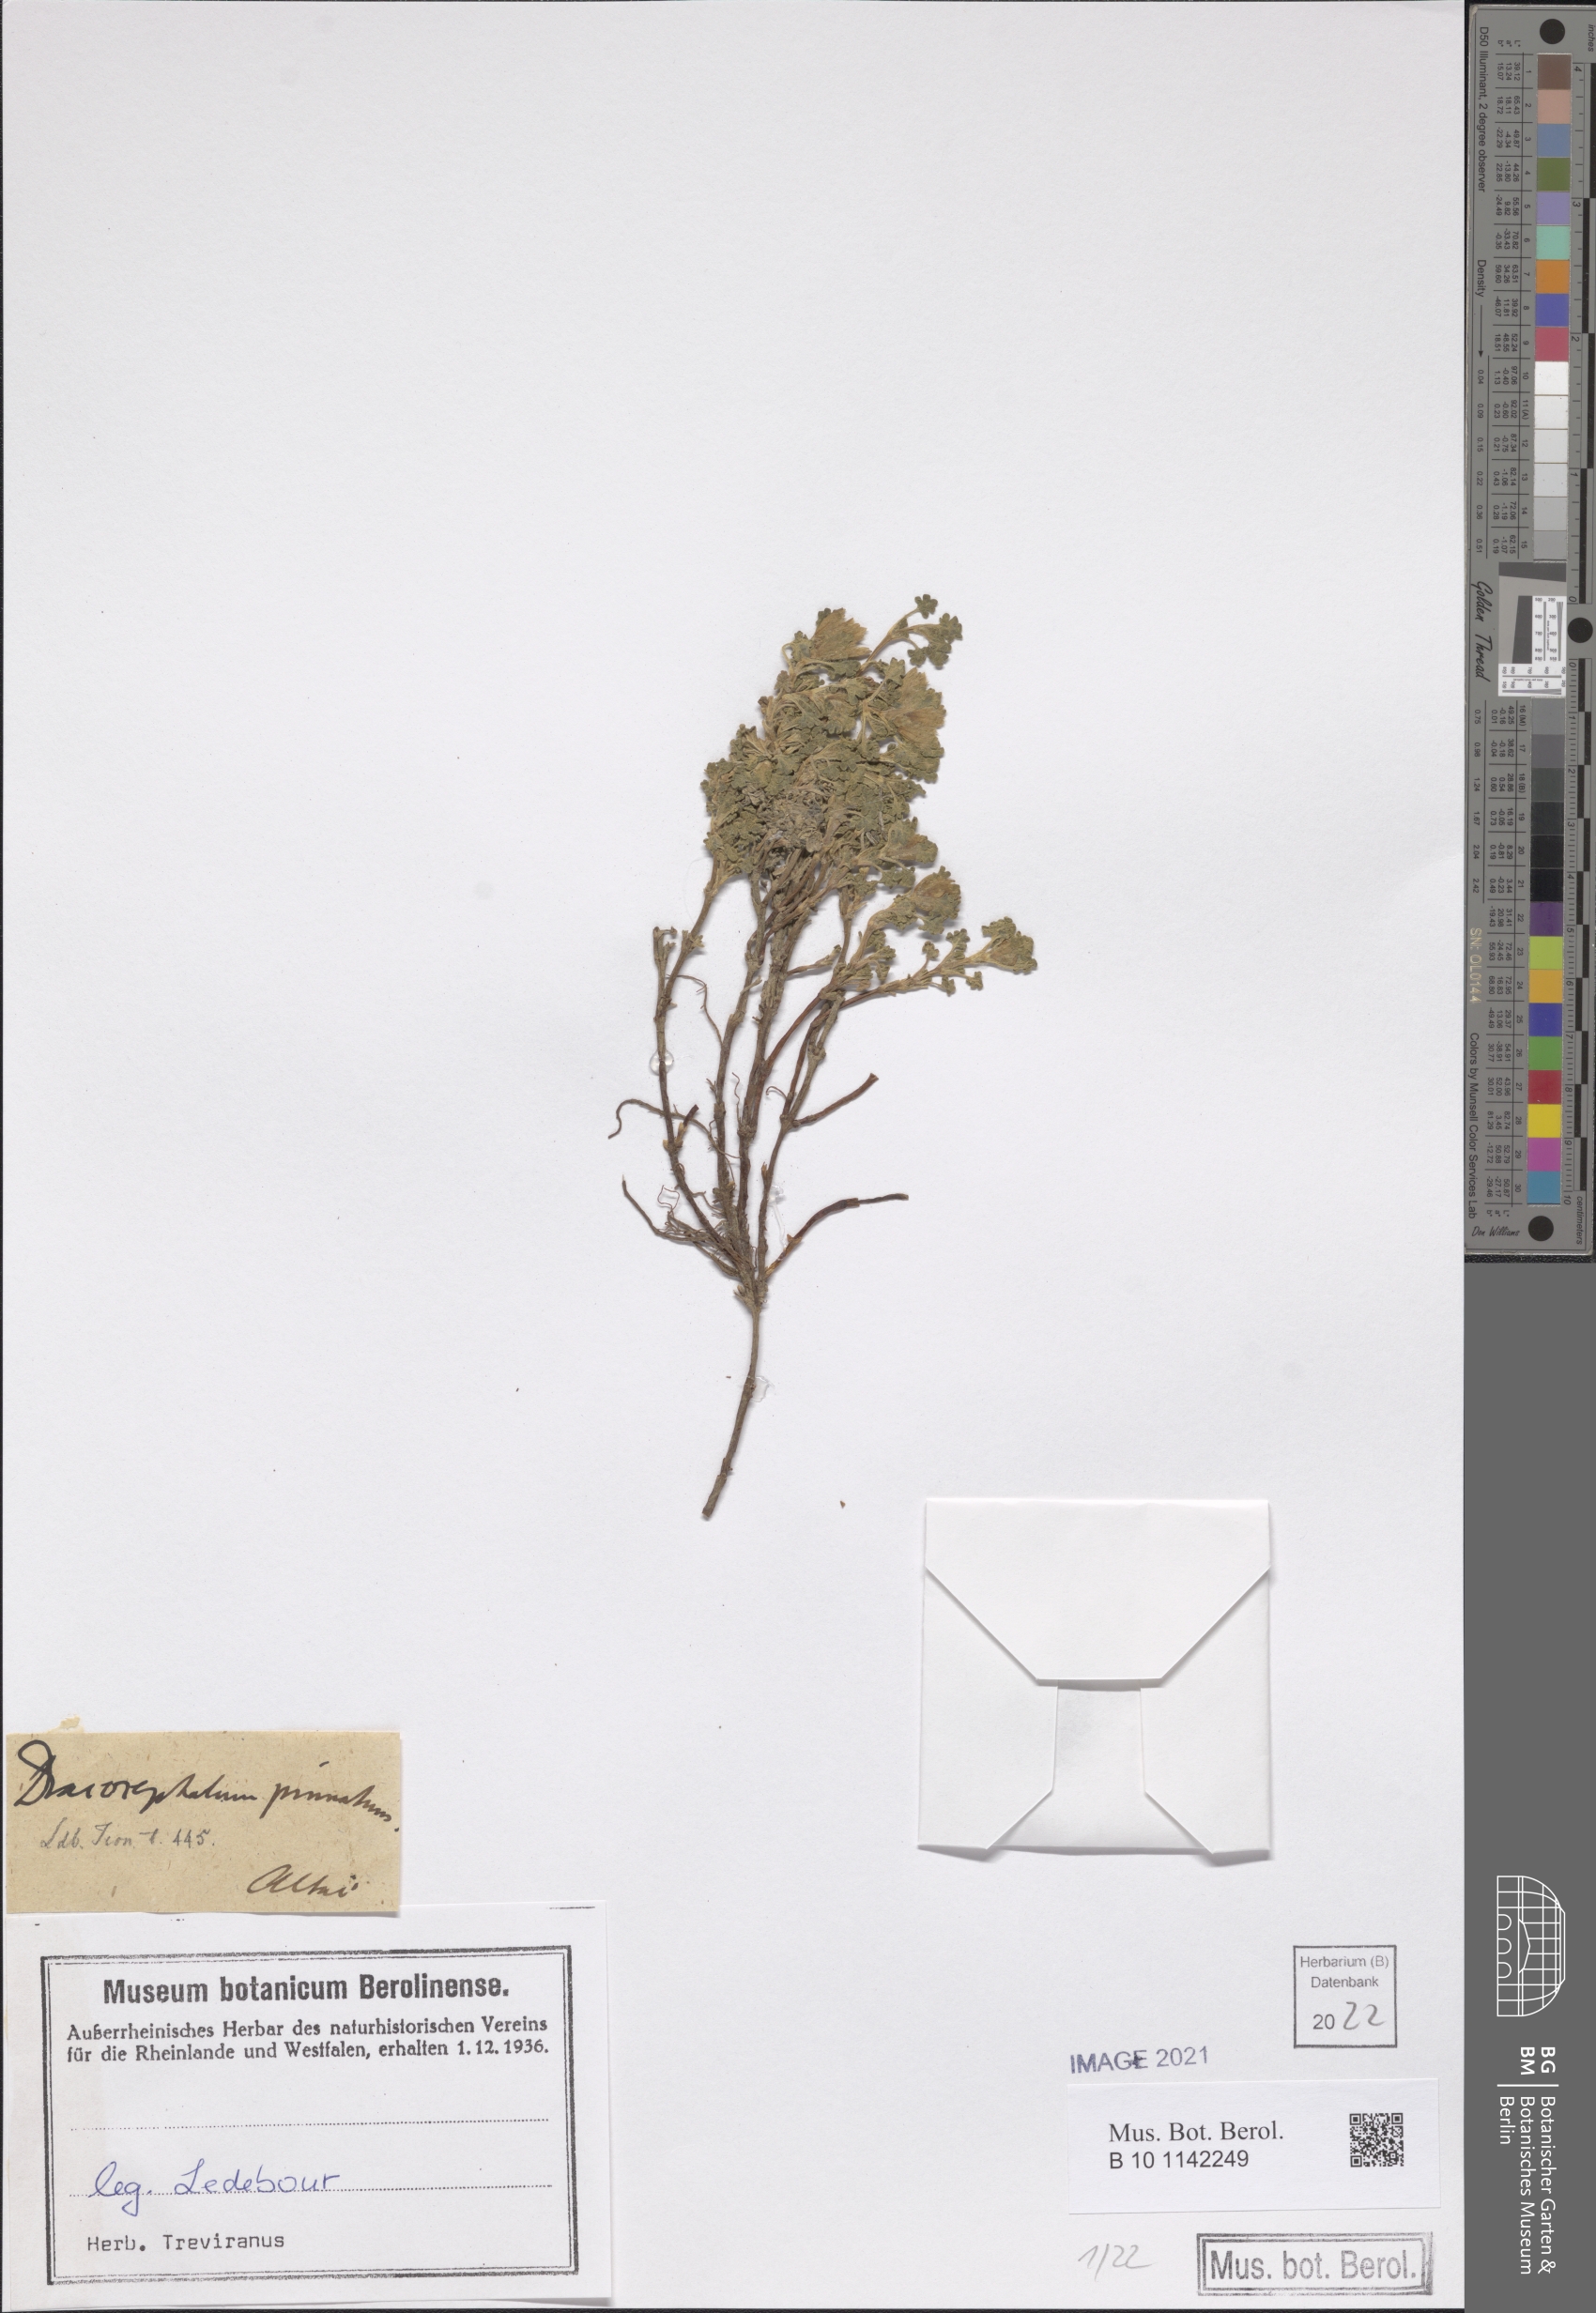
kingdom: Plantae
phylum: Tracheophyta
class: Magnoliopsida
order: Lamiales
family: Lamiaceae
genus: Dracocephalum
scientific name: Dracocephalum pinnatum
